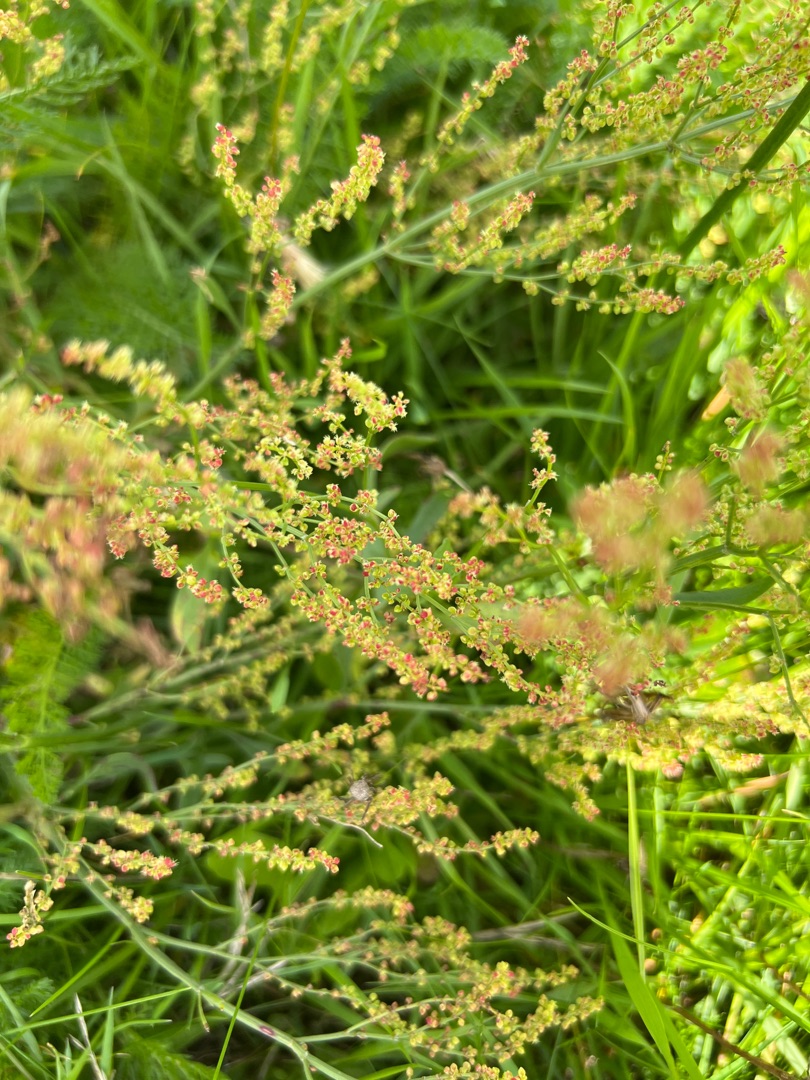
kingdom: Plantae
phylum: Tracheophyta
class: Magnoliopsida
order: Caryophyllales
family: Polygonaceae
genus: Rumex
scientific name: Rumex acetosella
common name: Rødknæ
